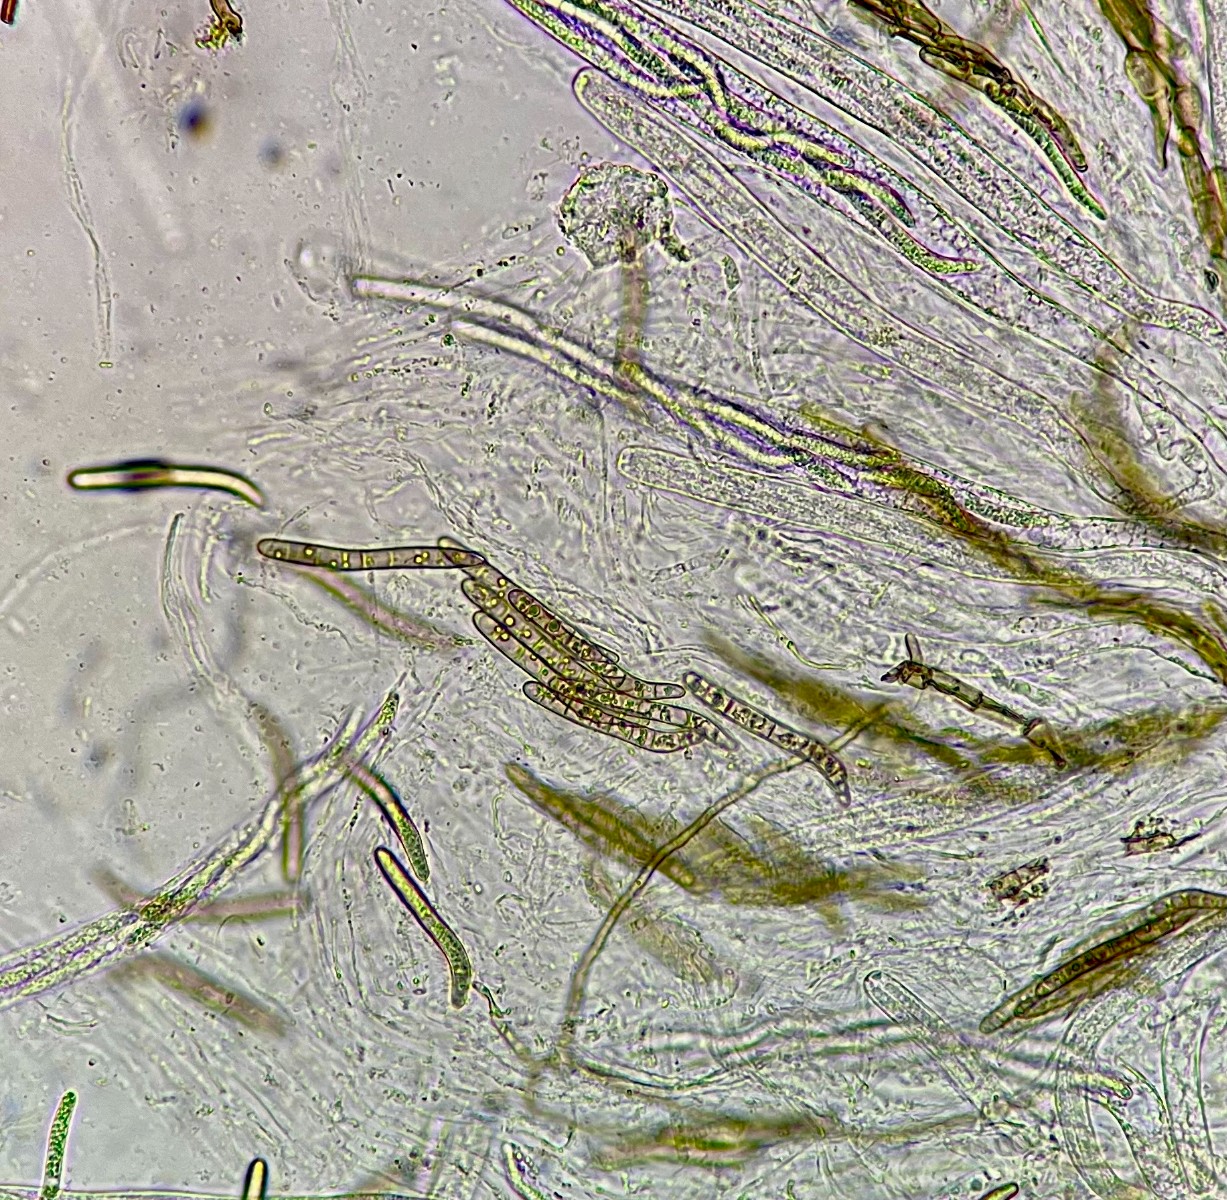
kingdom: Fungi
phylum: Ascomycota
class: Sordariomycetes
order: Sordariales
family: Lasiosphaeridaceae
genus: Lasiosphaeris
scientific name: Lasiosphaeris hirsuta
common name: sorthåret kernesvamp
